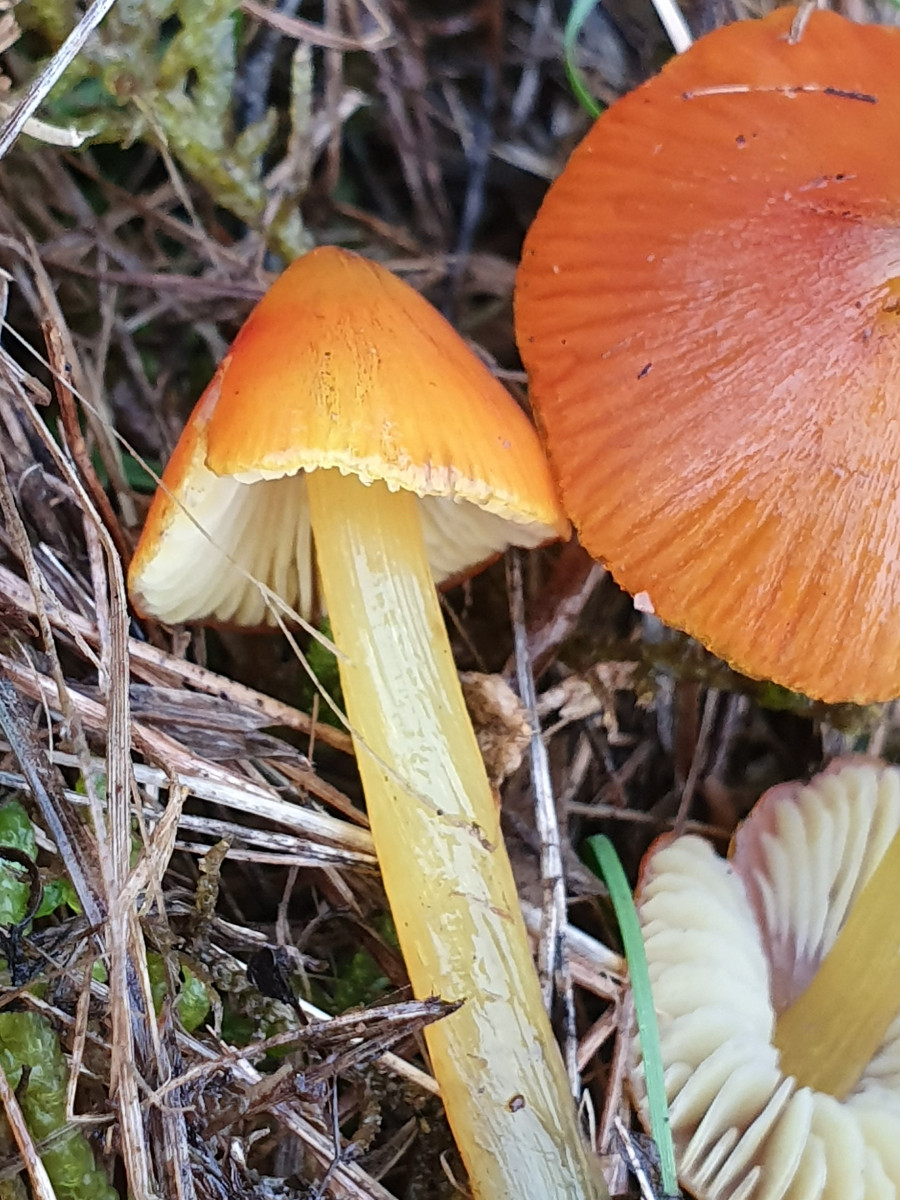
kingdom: Fungi
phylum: Basidiomycota
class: Agaricomycetes
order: Agaricales
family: Hygrophoraceae
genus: Hygrocybe
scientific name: Hygrocybe conica
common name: kegle-vokshat
